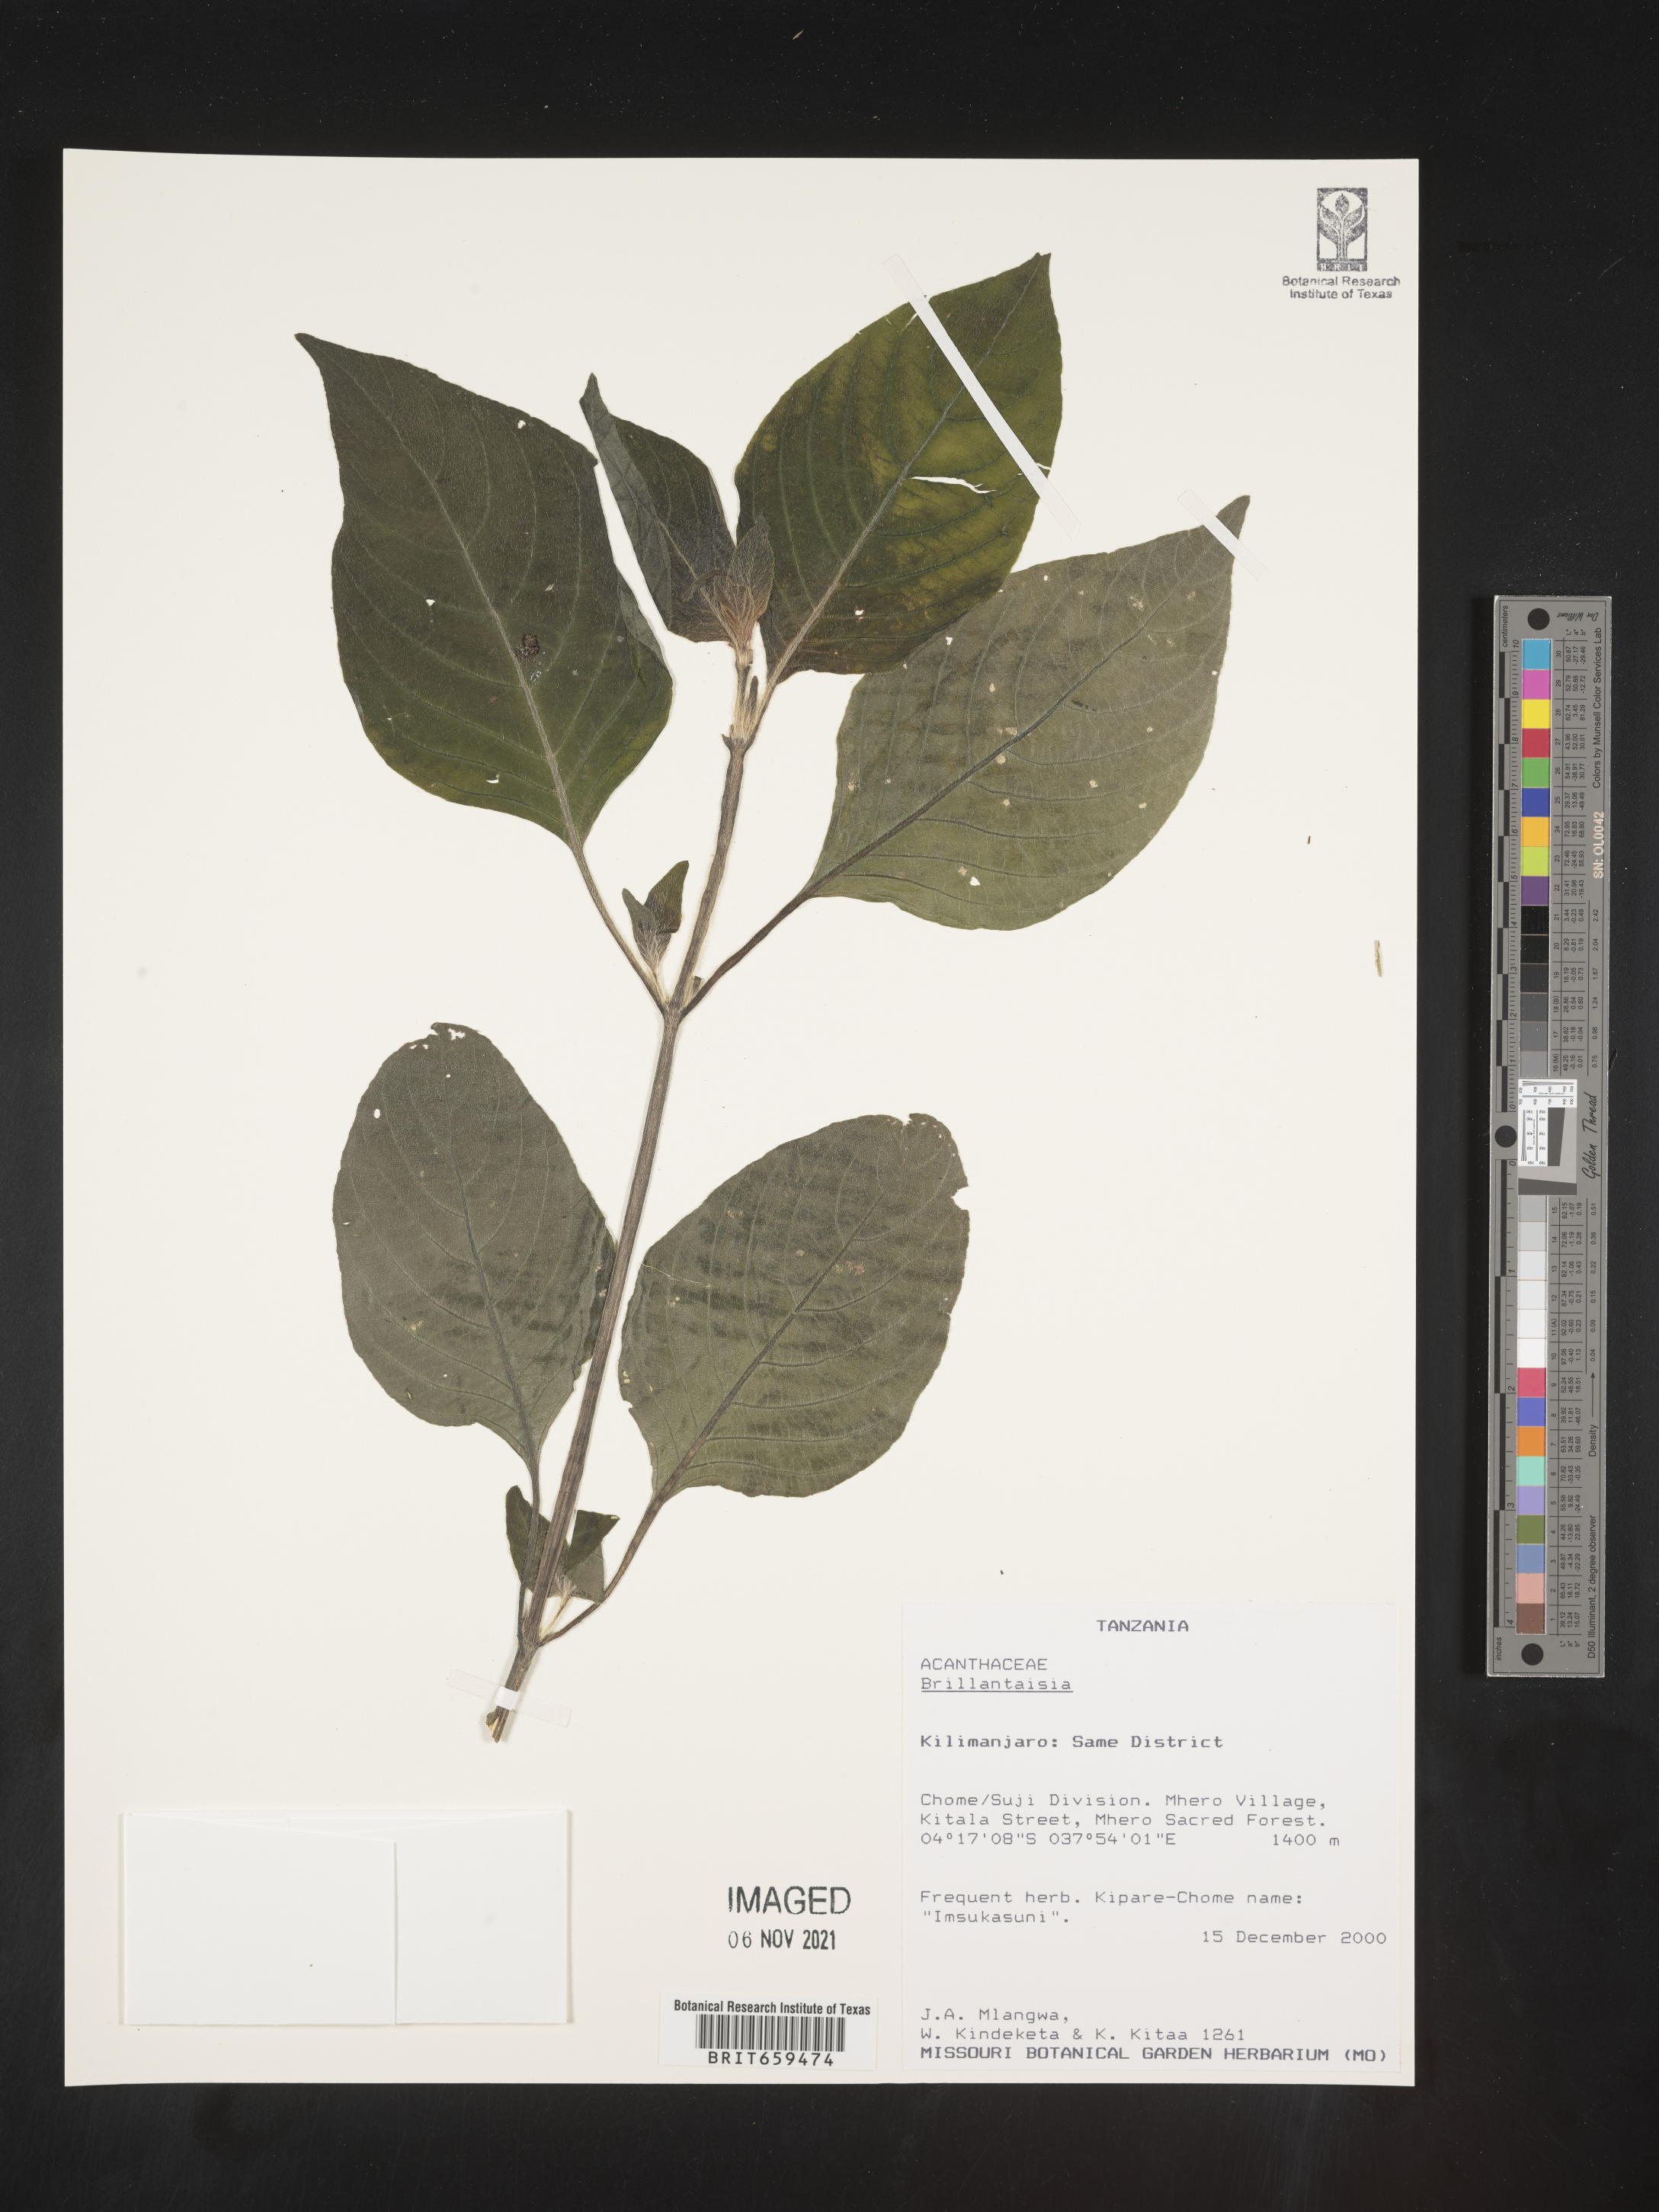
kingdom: Plantae
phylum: Tracheophyta
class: Magnoliopsida
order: Lamiales
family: Acanthaceae
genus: Brillantaisia
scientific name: Brillantaisia
